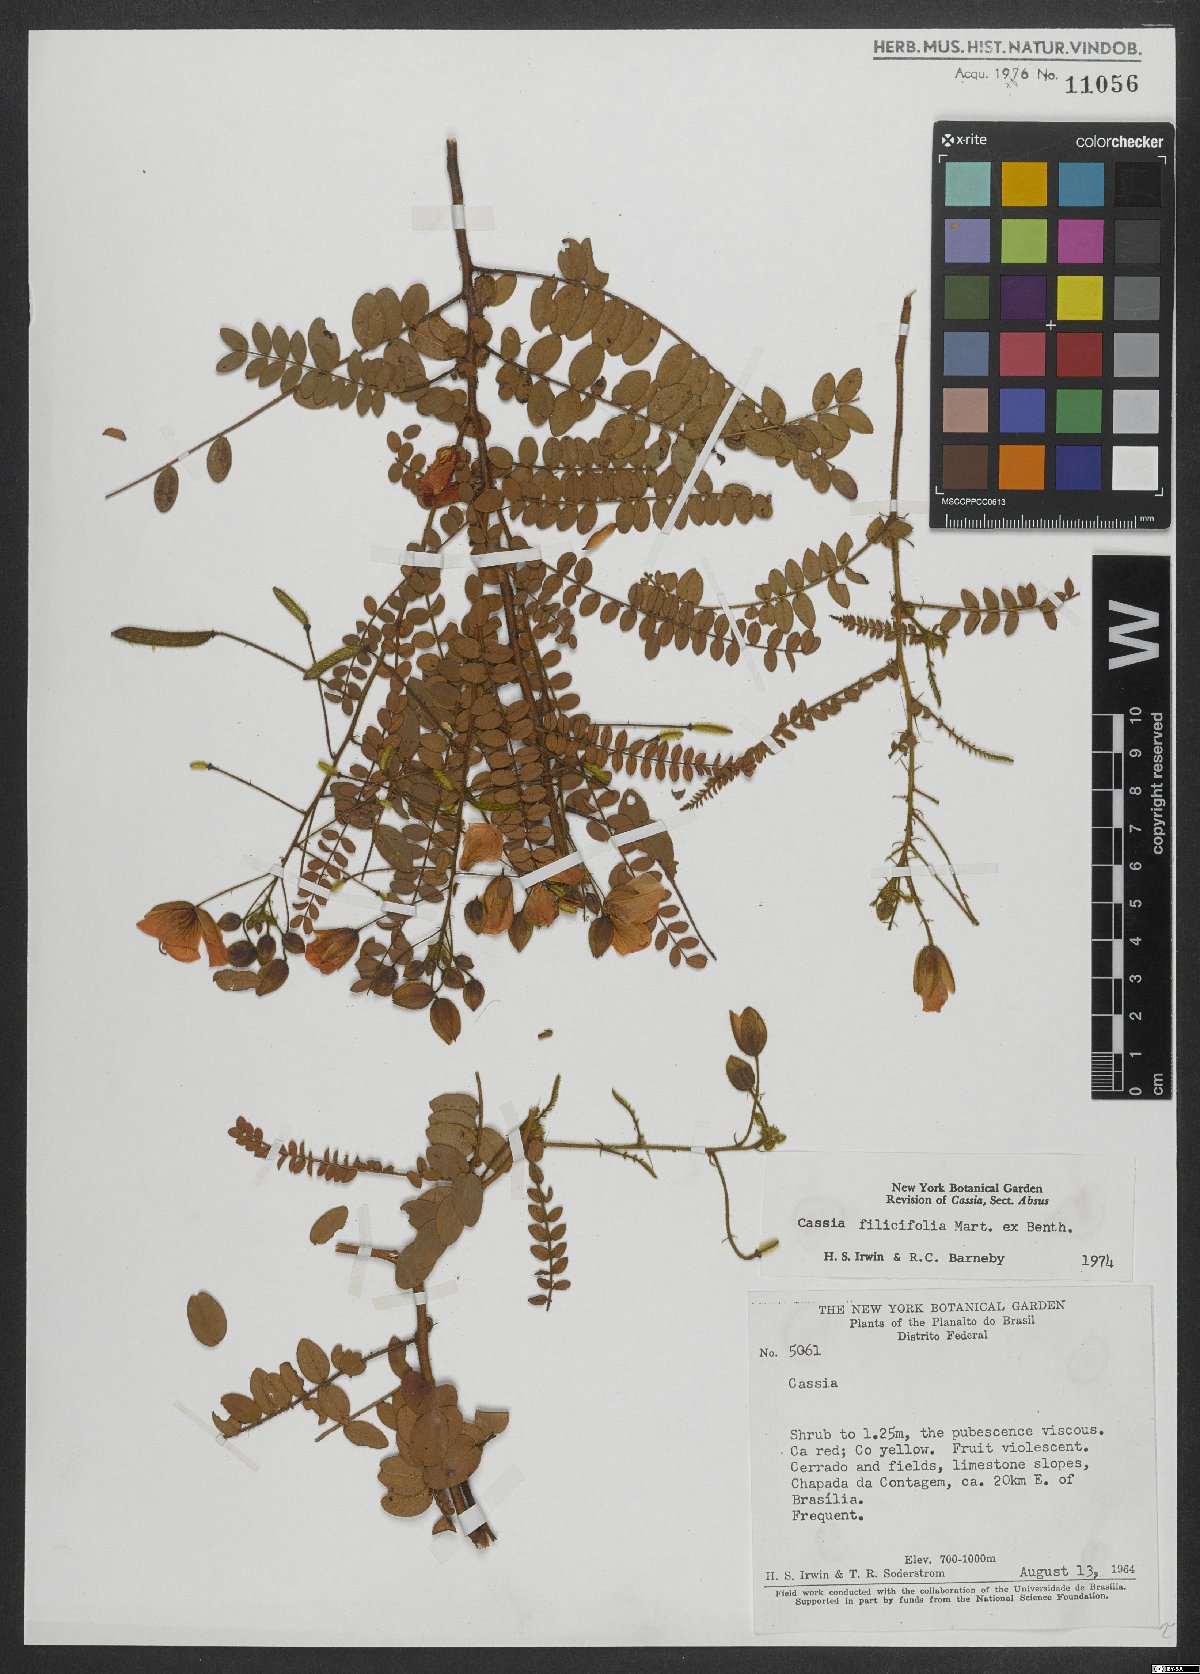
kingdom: Plantae
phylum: Tracheophyta
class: Magnoliopsida
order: Fabales
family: Fabaceae
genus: Chamaecrista
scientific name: Chamaecrista filicifolia
